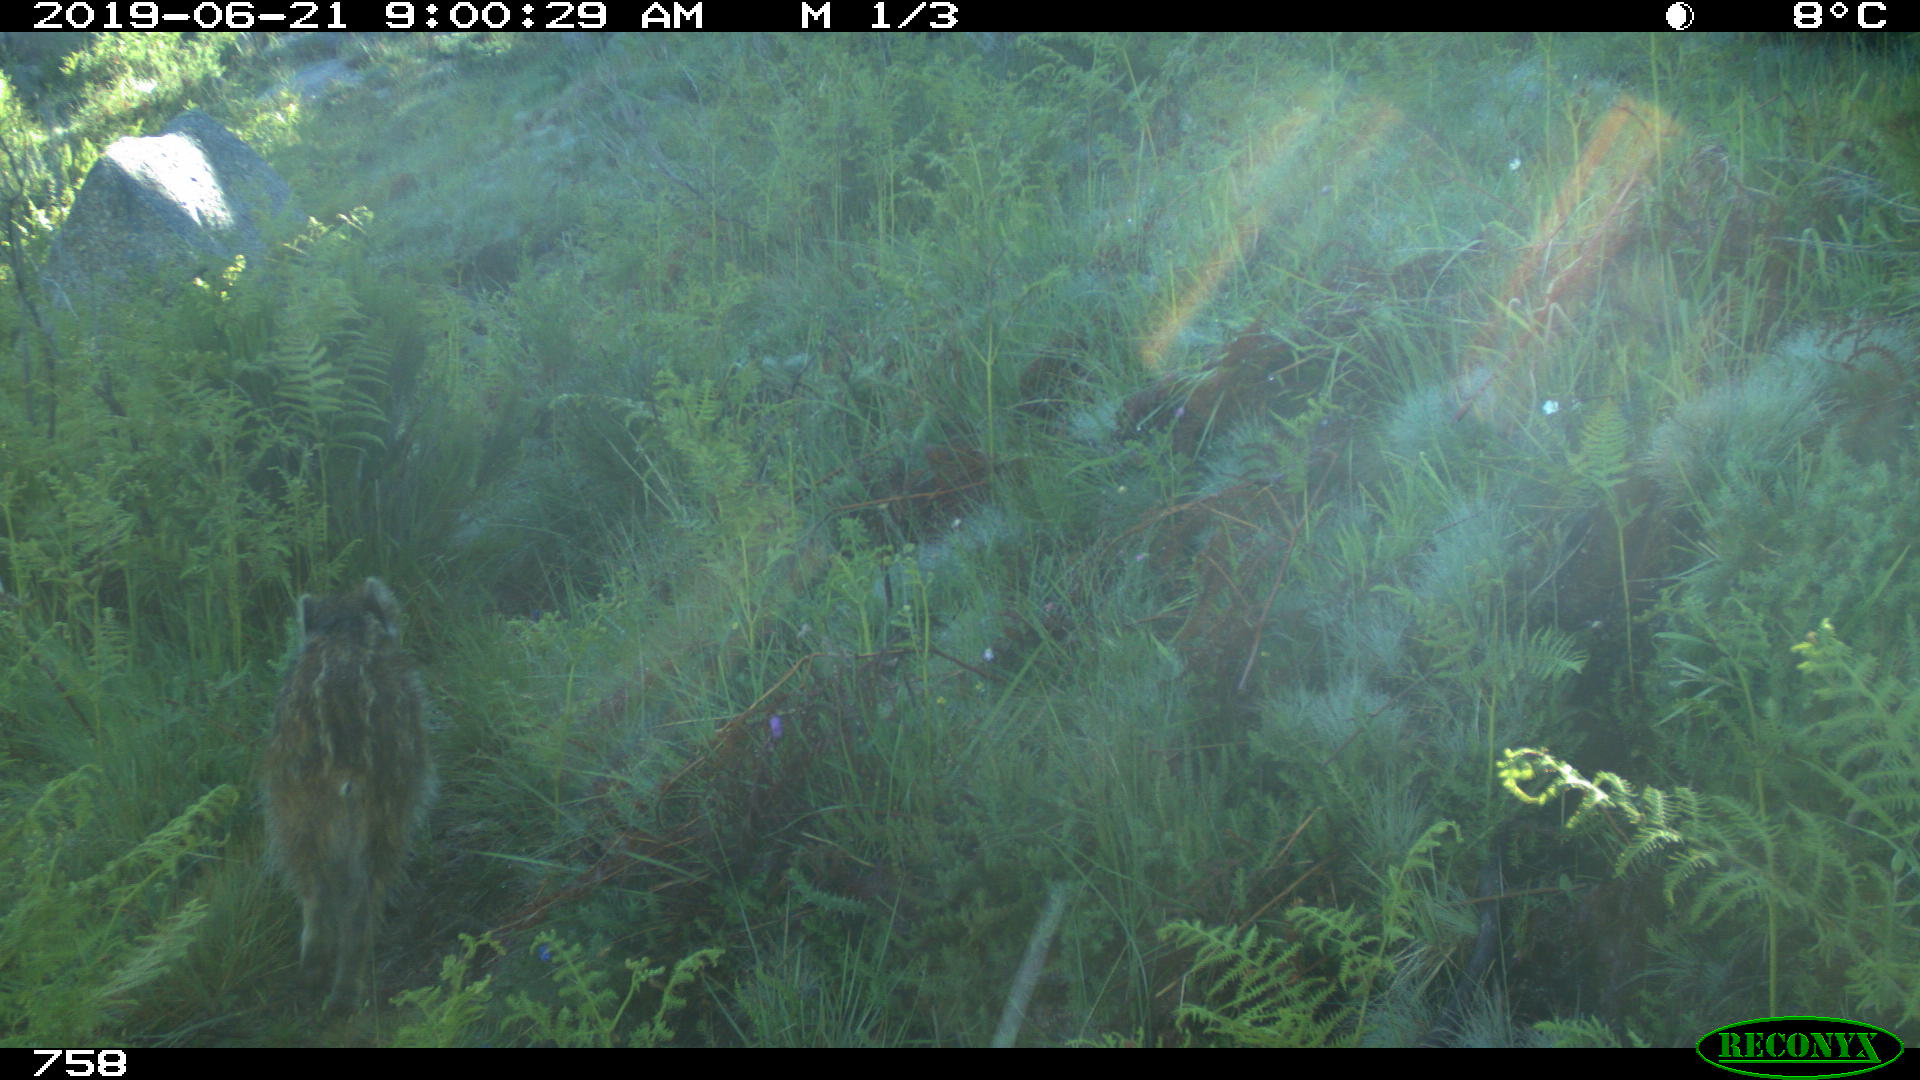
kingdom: Animalia
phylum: Chordata
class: Mammalia
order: Artiodactyla
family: Suidae
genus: Sus
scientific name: Sus scrofa
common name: Wild boar
